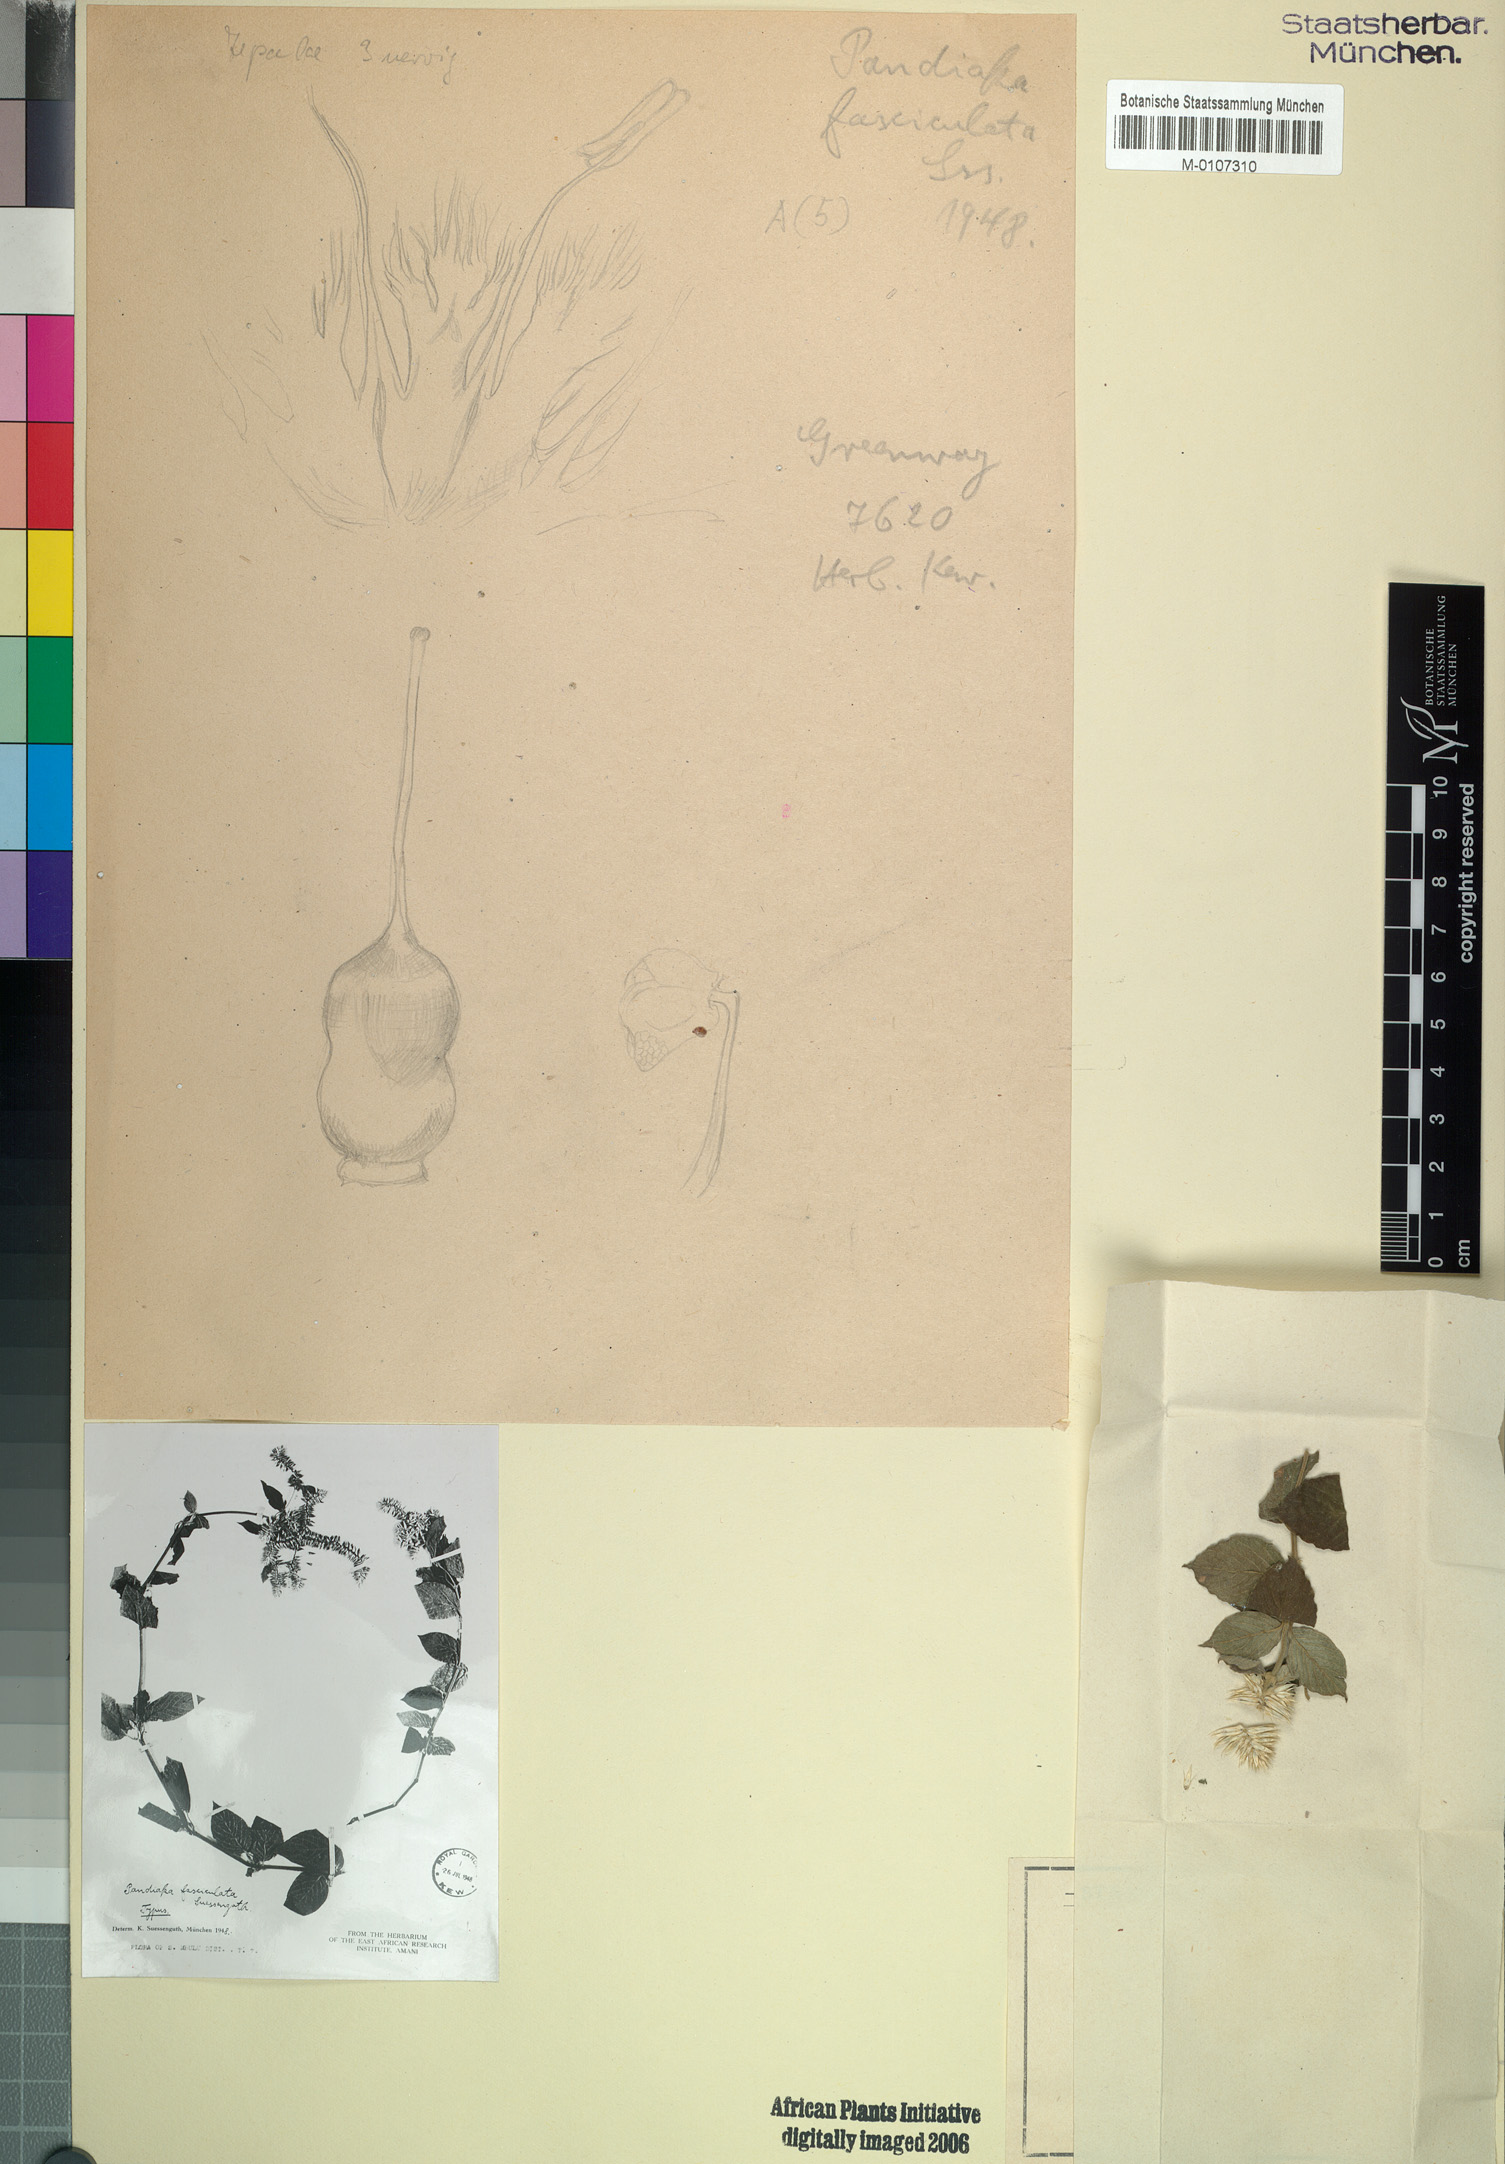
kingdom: Plantae
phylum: Tracheophyta
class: Magnoliopsida
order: Caryophyllales
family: Amaranthaceae
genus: Achyranthes
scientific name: Achyranthes fasciculata
